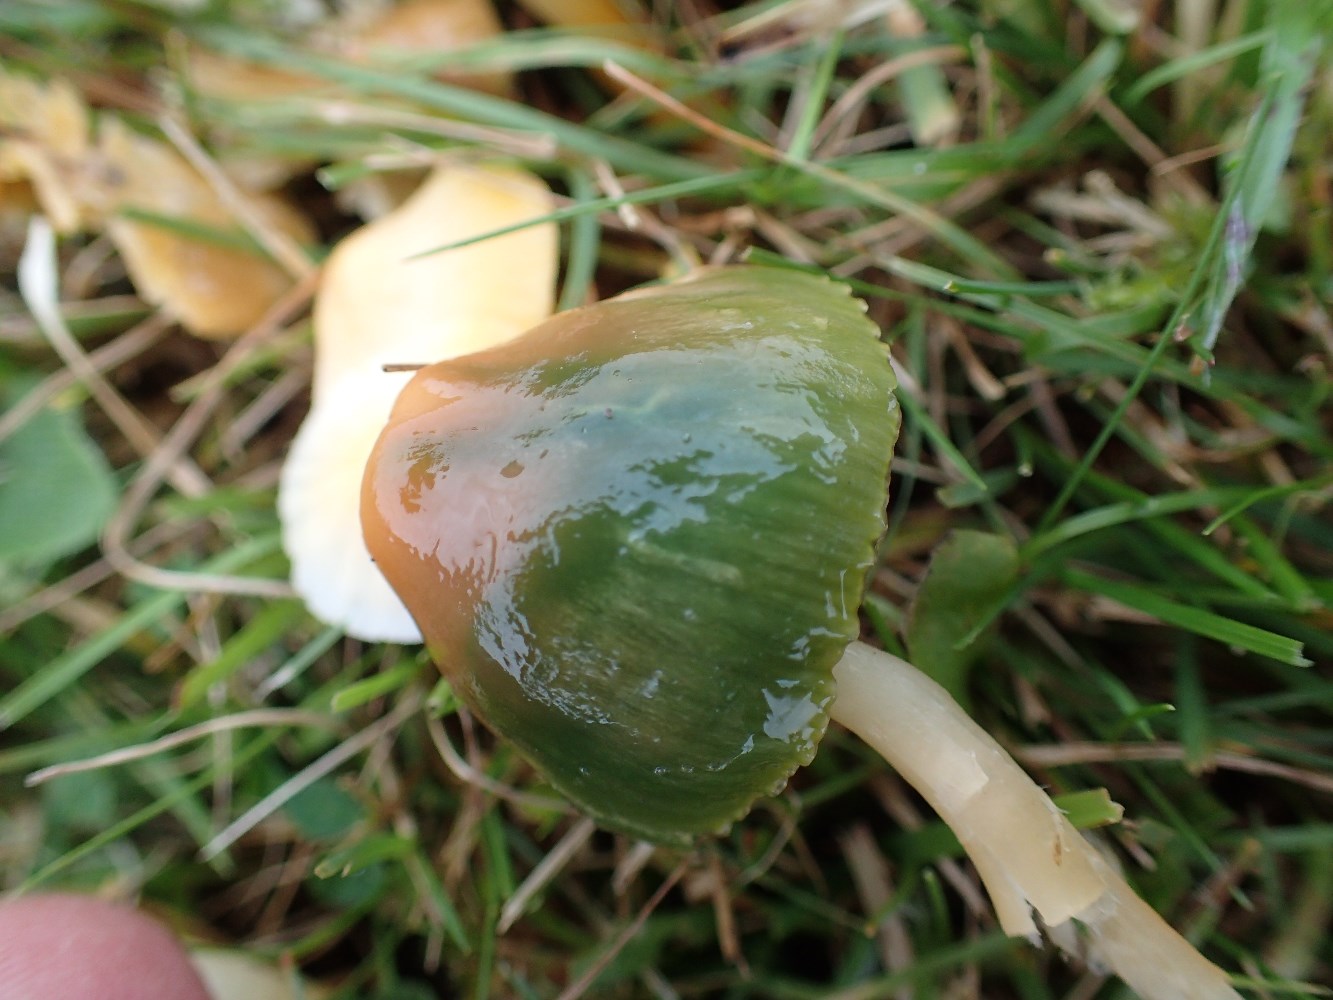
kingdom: Fungi
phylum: Basidiomycota
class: Agaricomycetes
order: Agaricales
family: Hygrophoraceae
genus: Gliophorus
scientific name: Gliophorus psittacinus
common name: papegøje-vokshat
